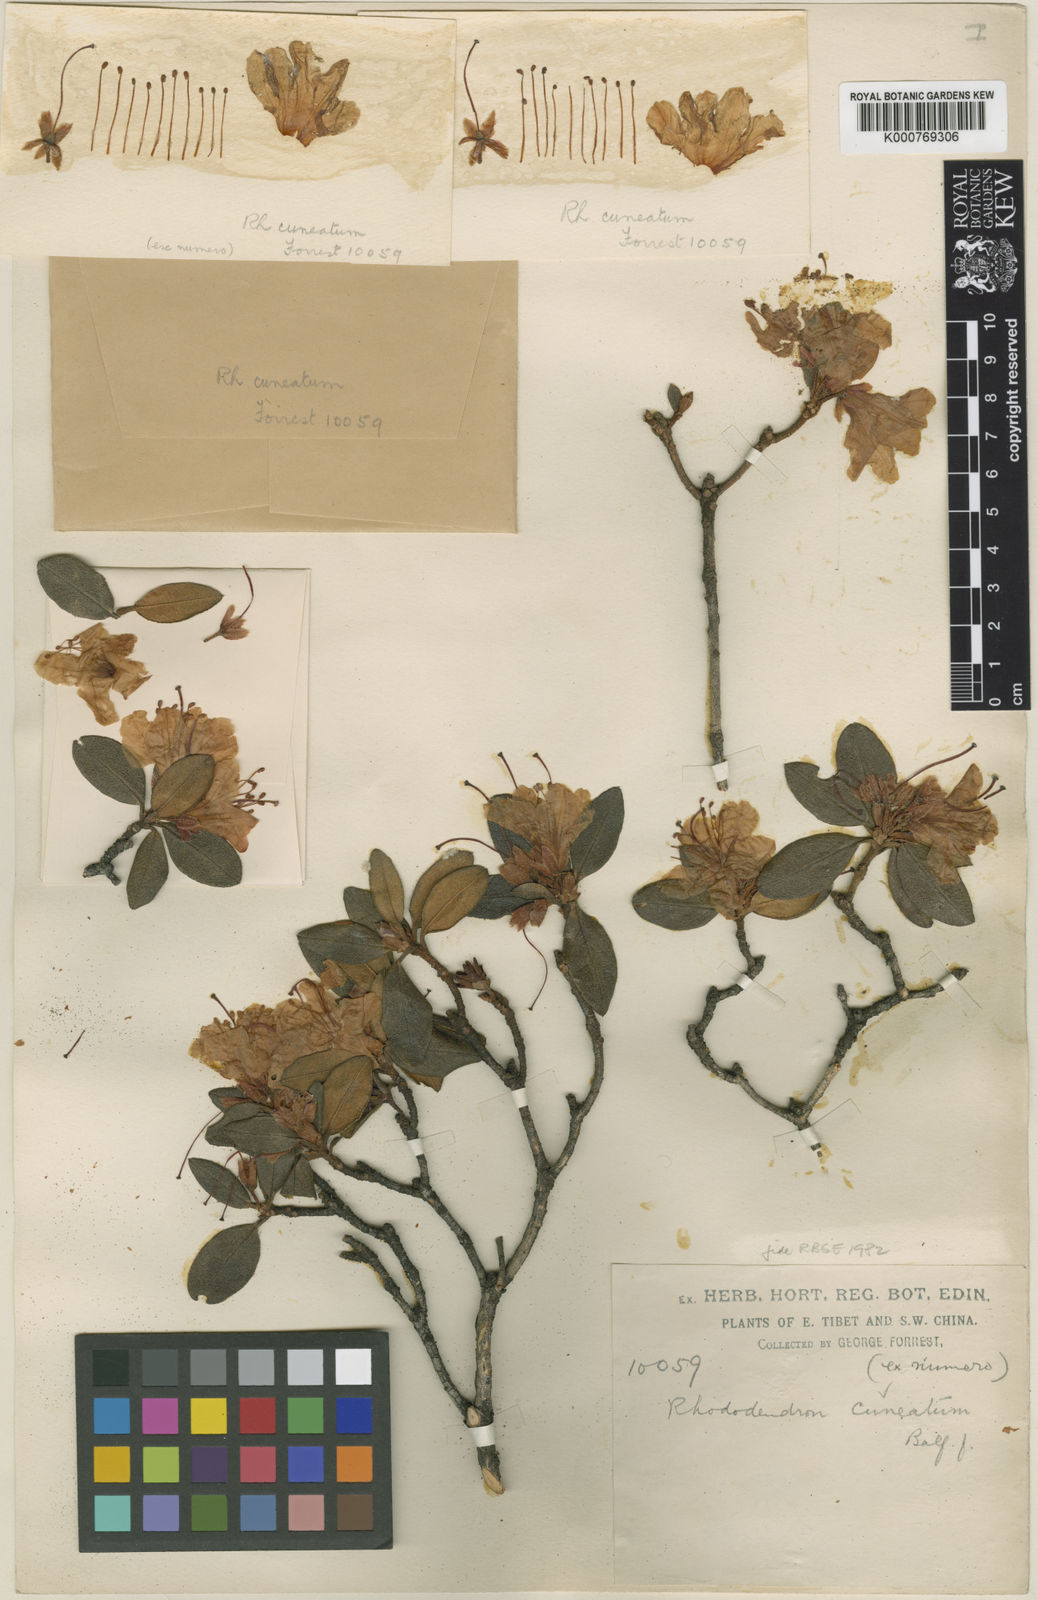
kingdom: Plantae
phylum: Tracheophyta
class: Magnoliopsida
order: Ericales
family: Ericaceae
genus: Rhododendron
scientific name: Rhododendron
